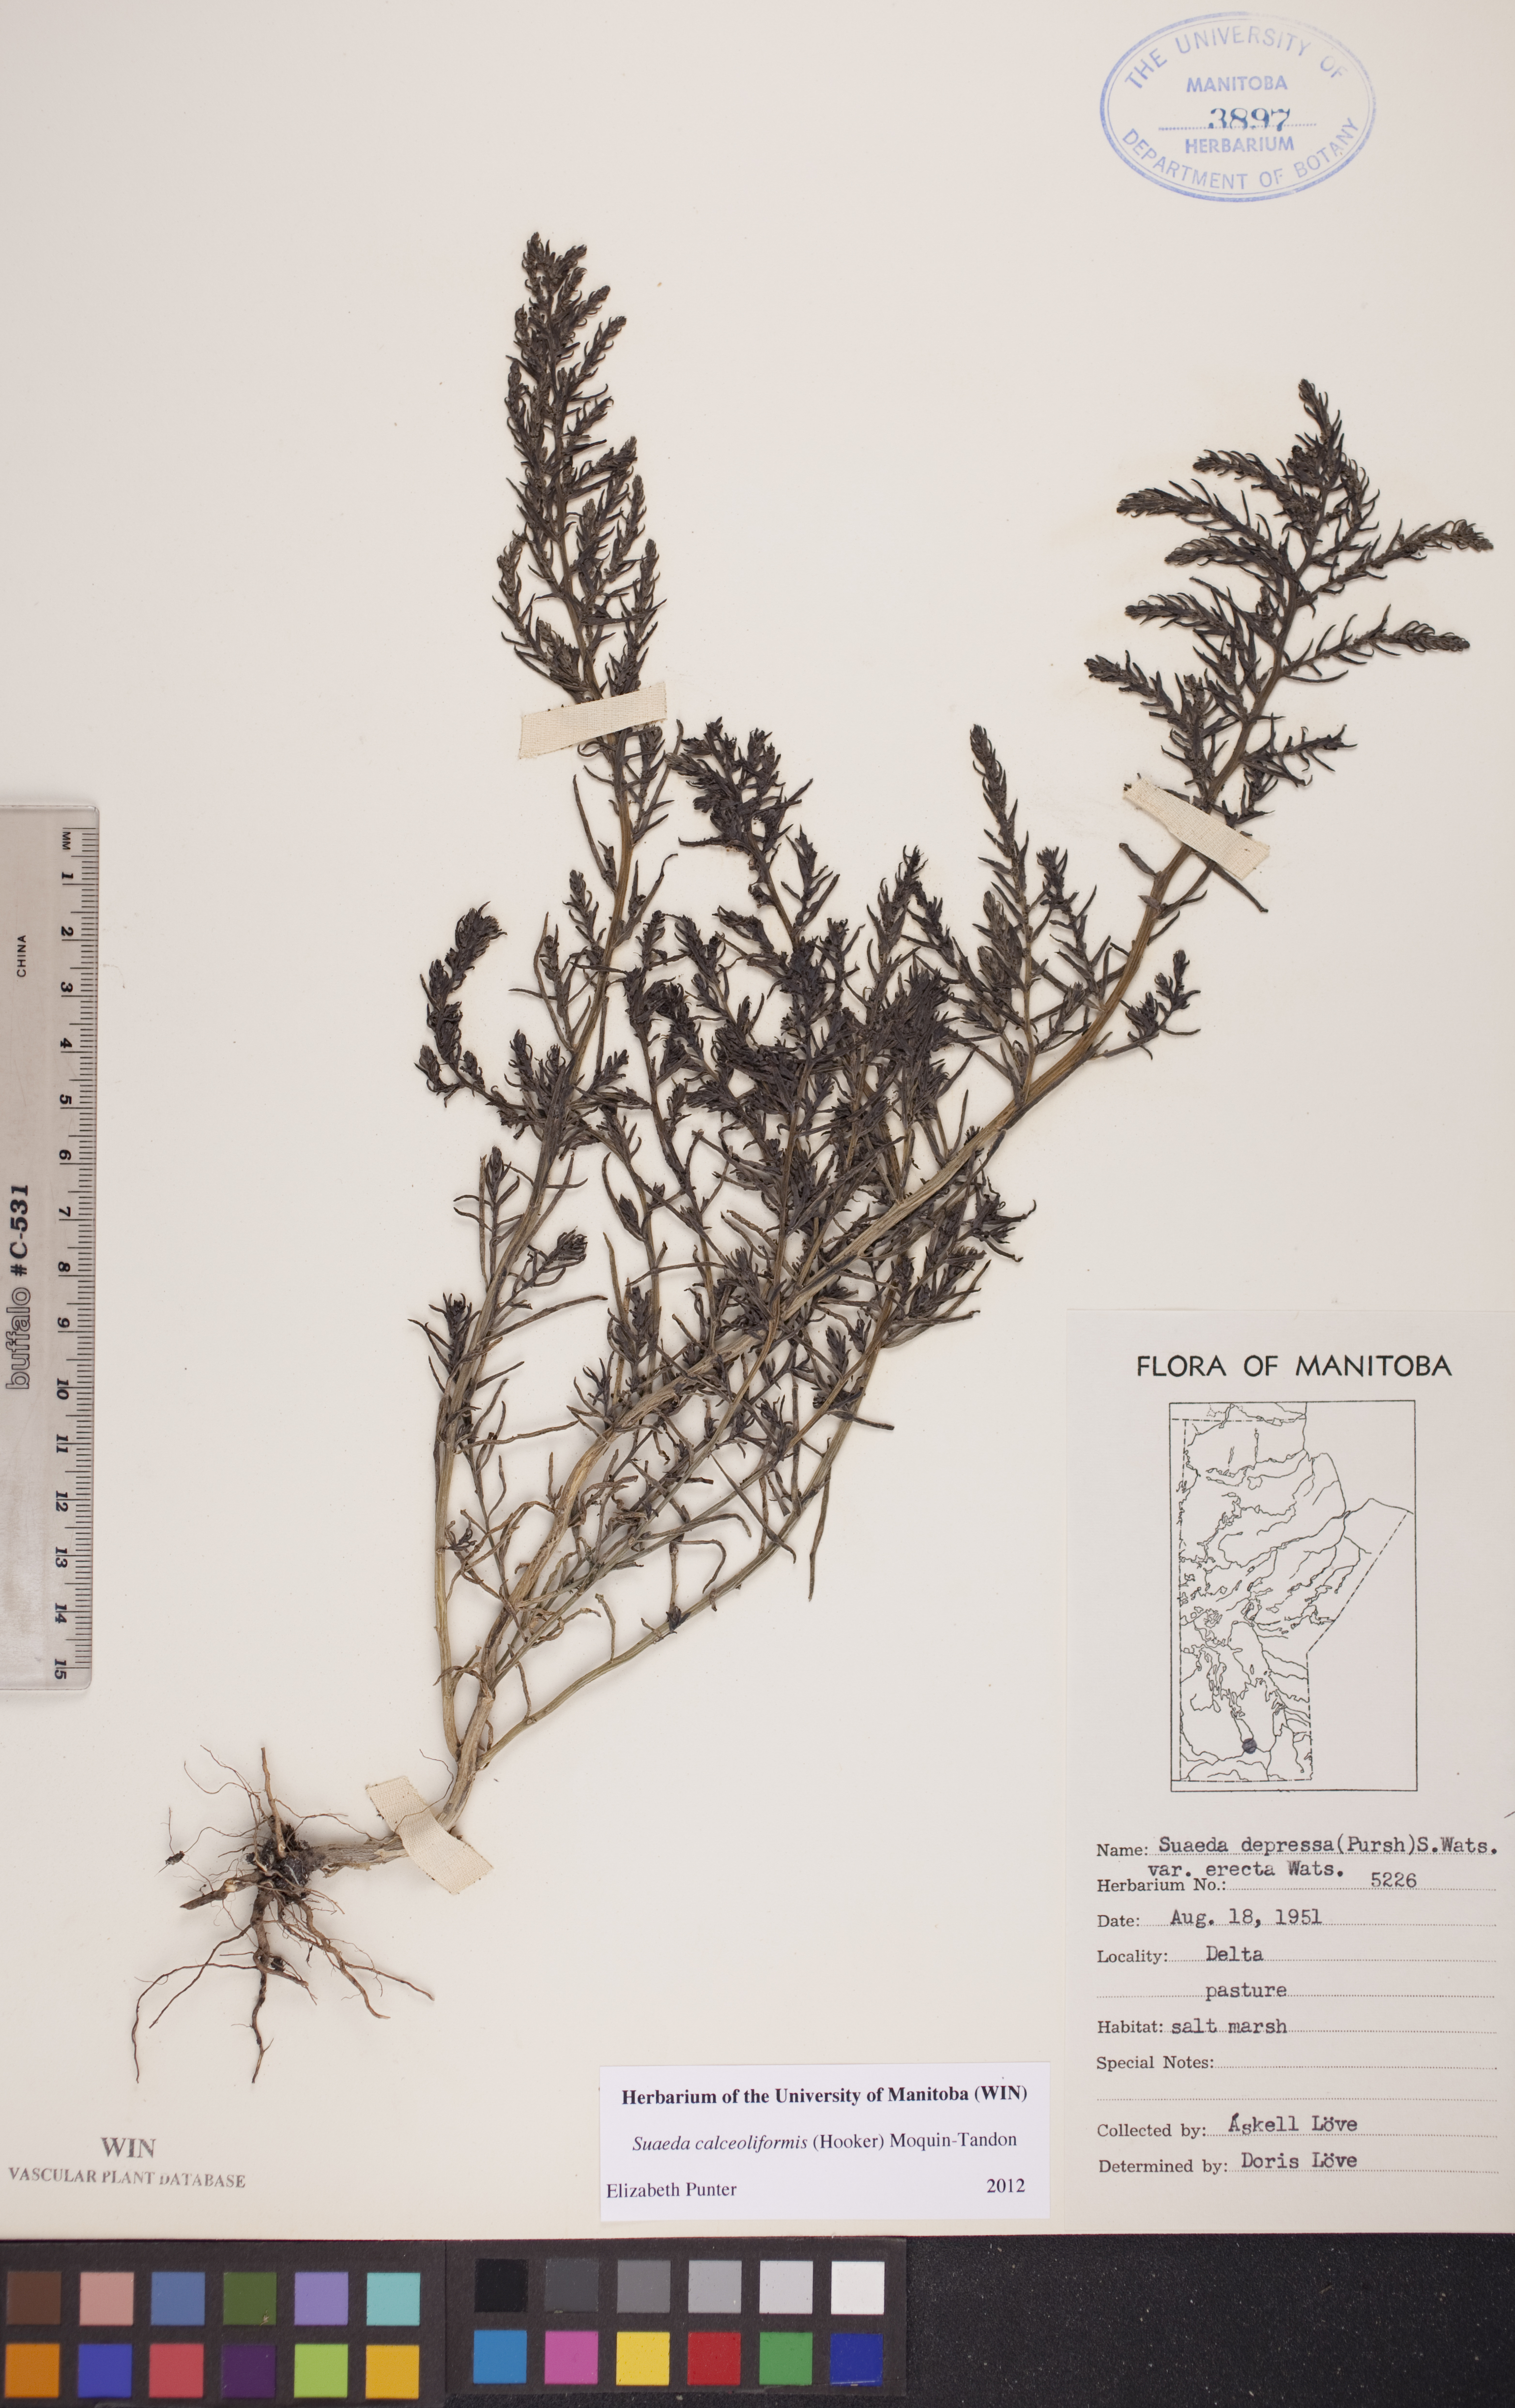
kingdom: Plantae
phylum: Tracheophyta
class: Magnoliopsida
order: Caryophyllales
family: Amaranthaceae
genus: Suaeda
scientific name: Suaeda calceoliformis
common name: Pursh's seepweed
